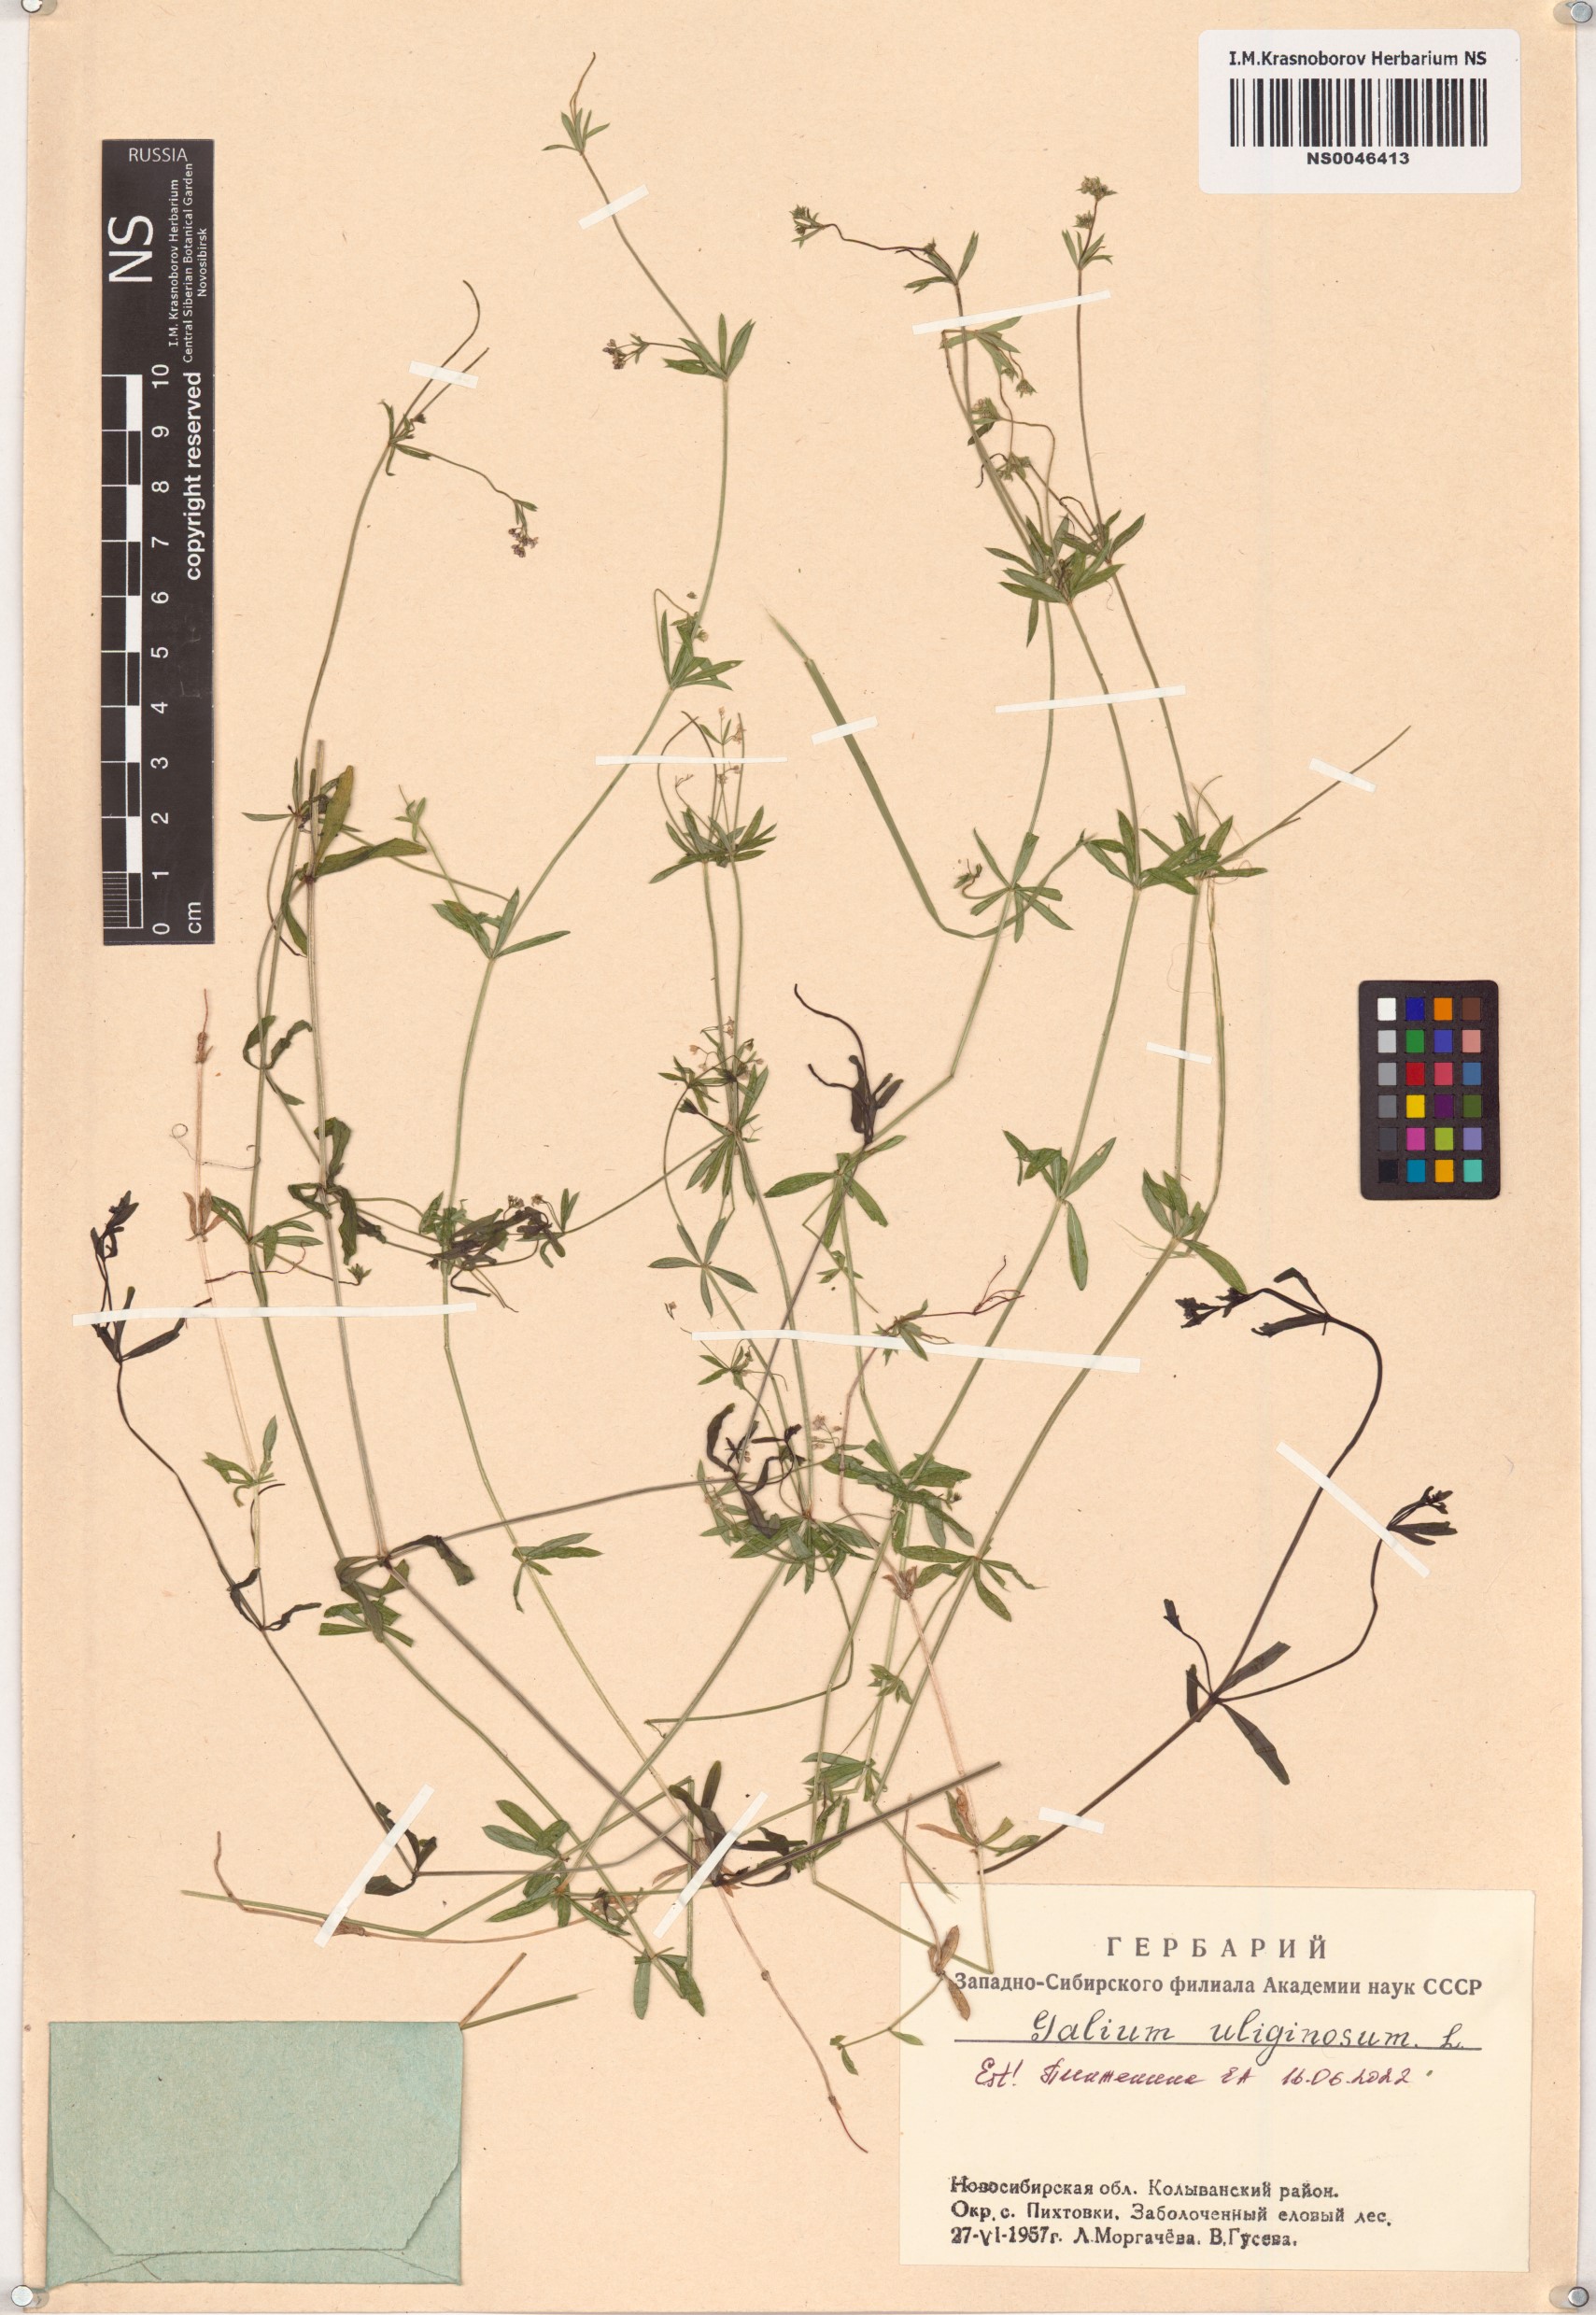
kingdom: Plantae
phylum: Tracheophyta
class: Magnoliopsida
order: Gentianales
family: Rubiaceae
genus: Galium
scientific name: Galium uliginosum
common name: Fen bedstraw
